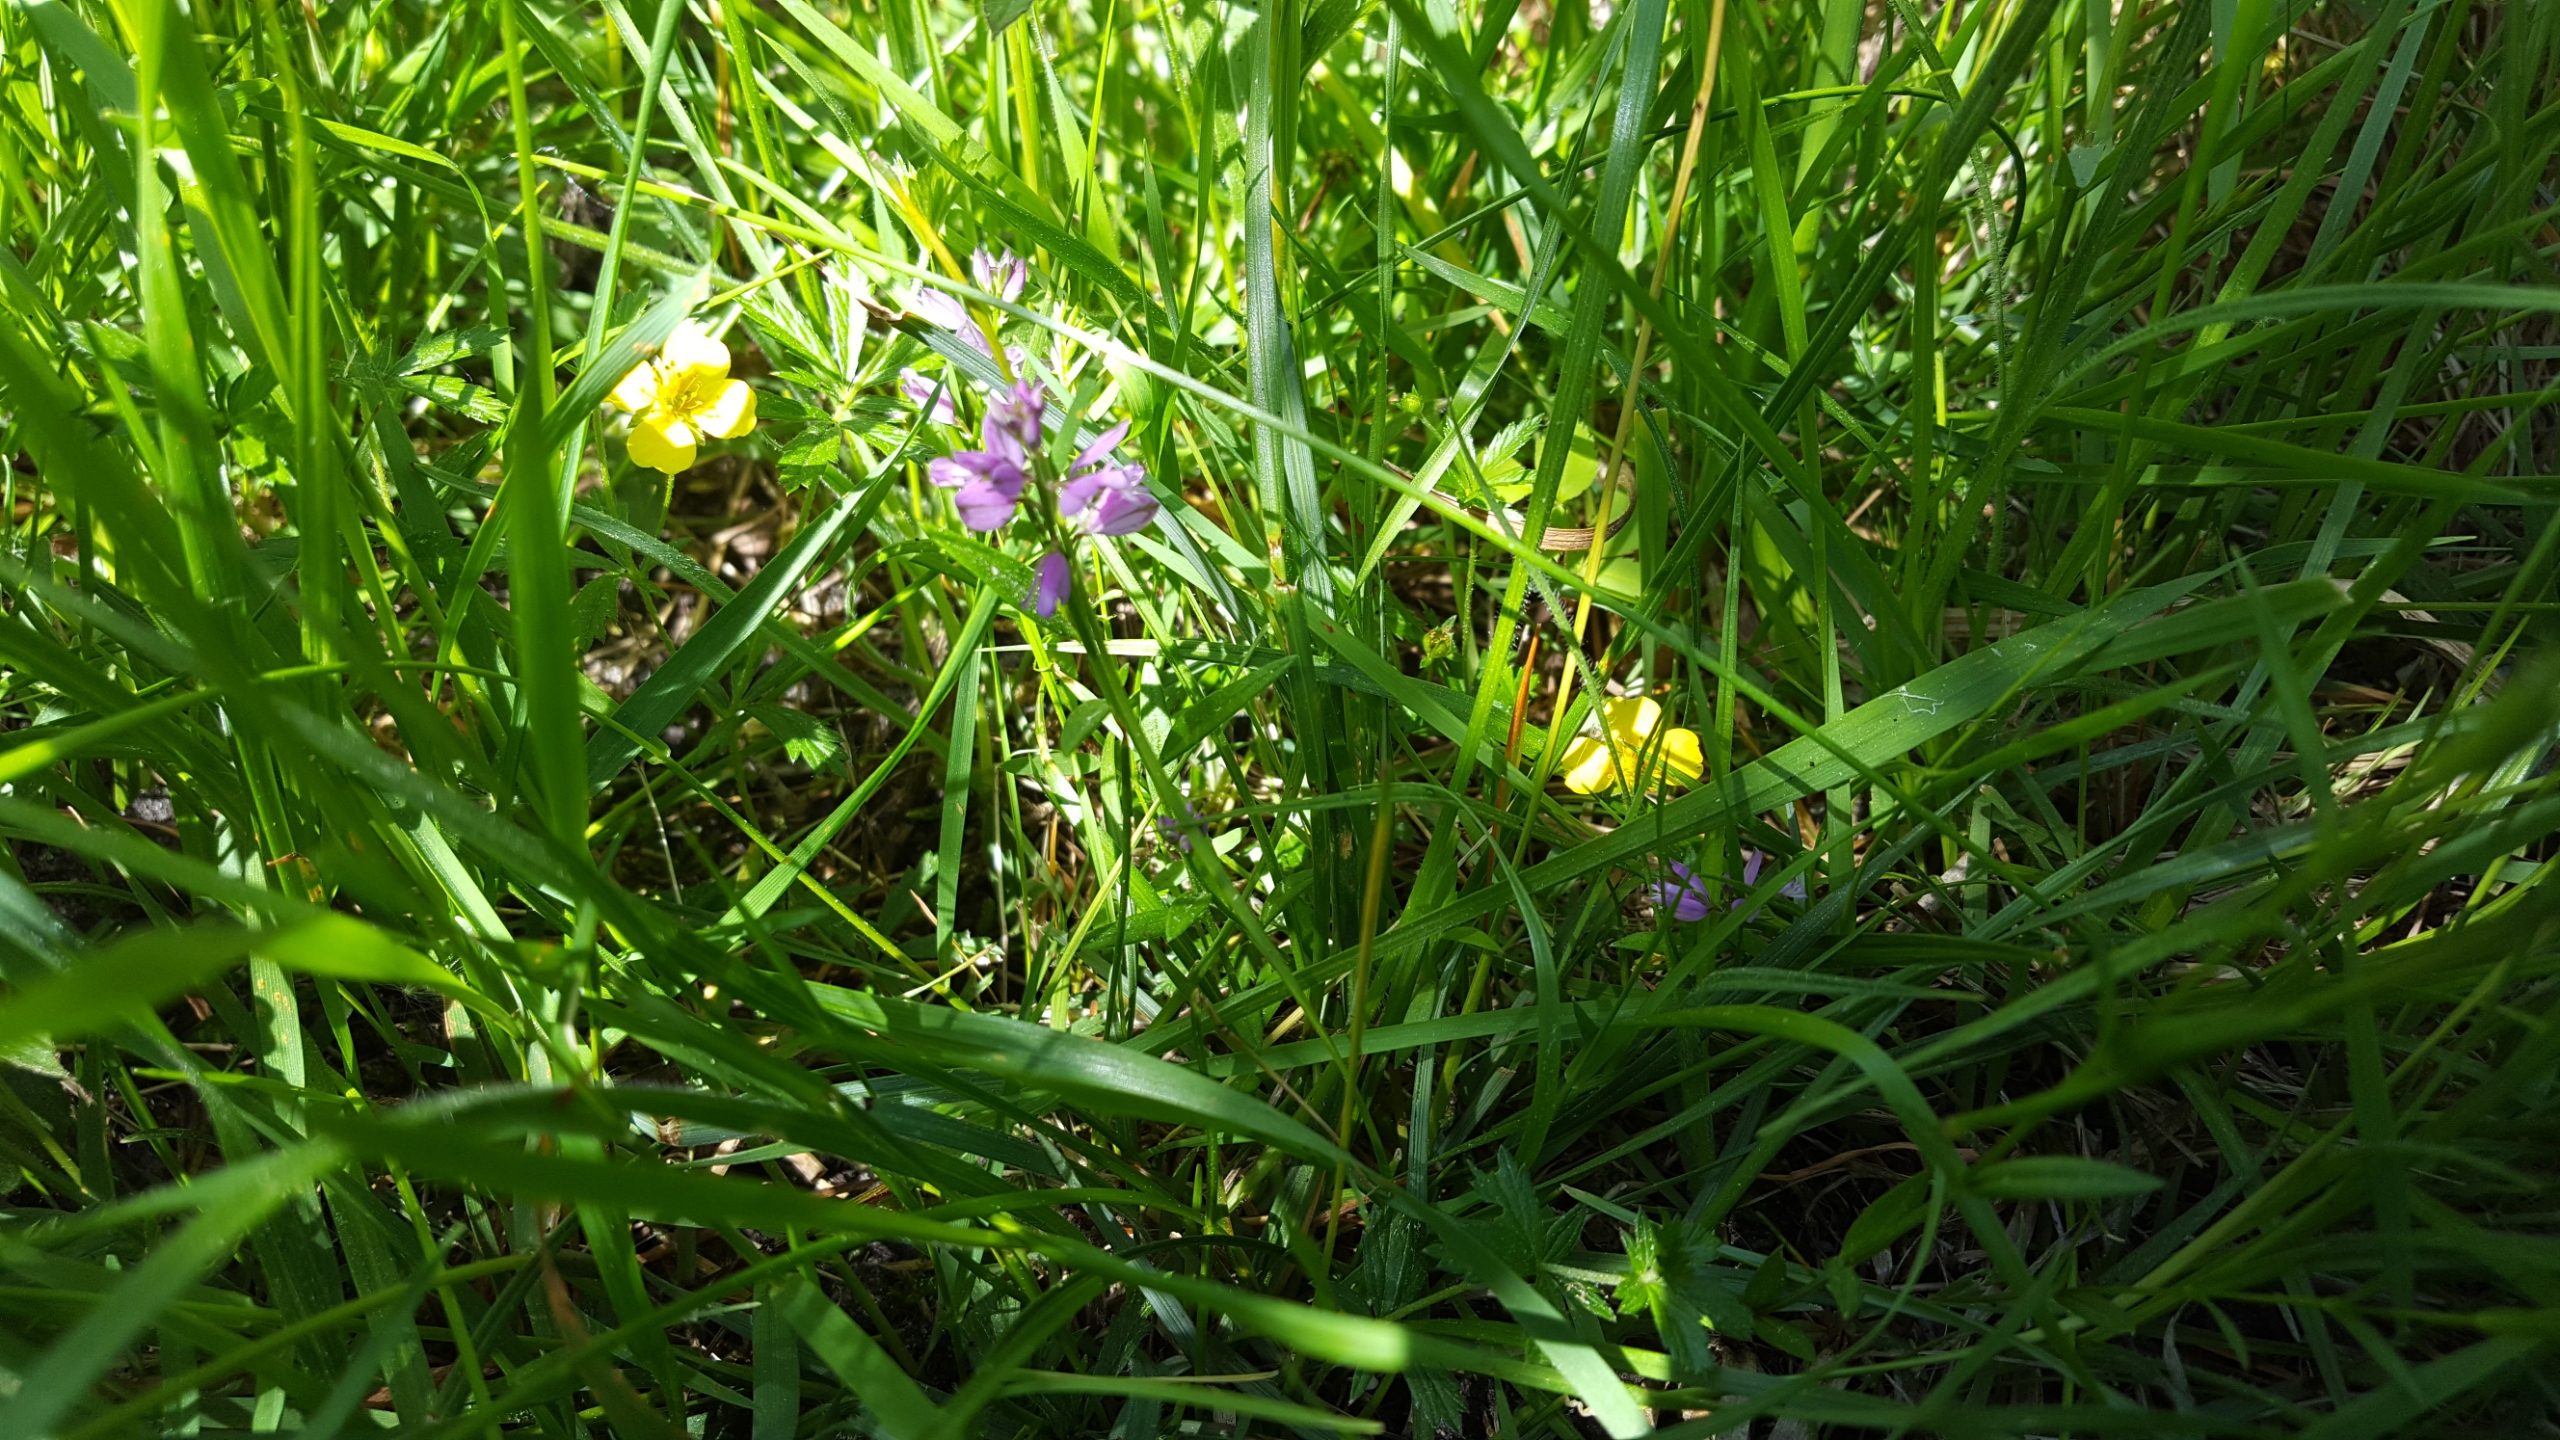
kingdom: Plantae
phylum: Tracheophyta
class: Magnoliopsida
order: Fabales
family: Polygalaceae
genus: Polygala
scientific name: Polygala vulgaris
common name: Almindelig mælkeurt
